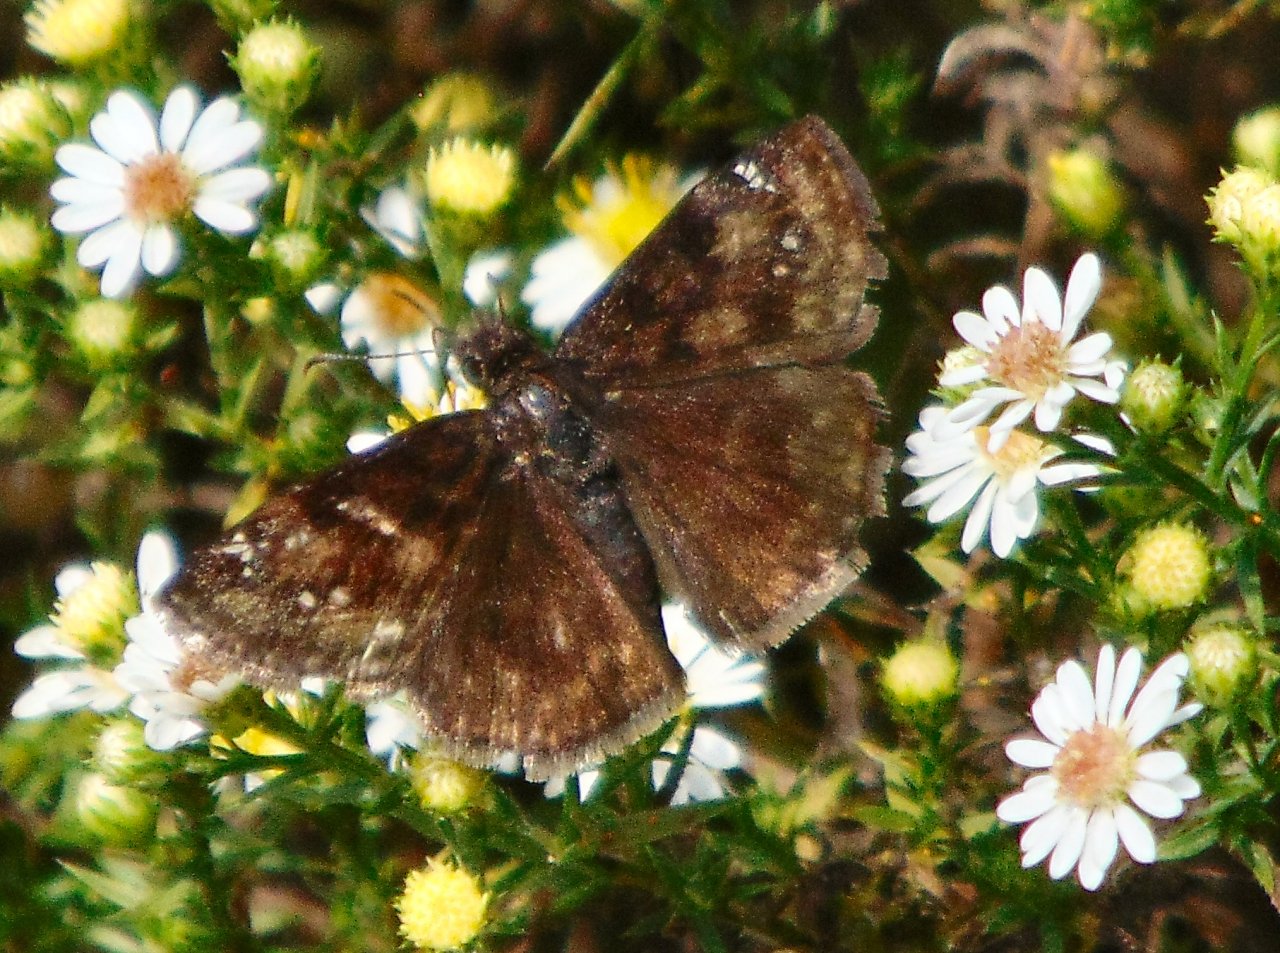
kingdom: Animalia
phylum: Arthropoda
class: Insecta
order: Lepidoptera
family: Hesperiidae
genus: Gesta
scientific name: Gesta
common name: Wild Indigo Duskywing
